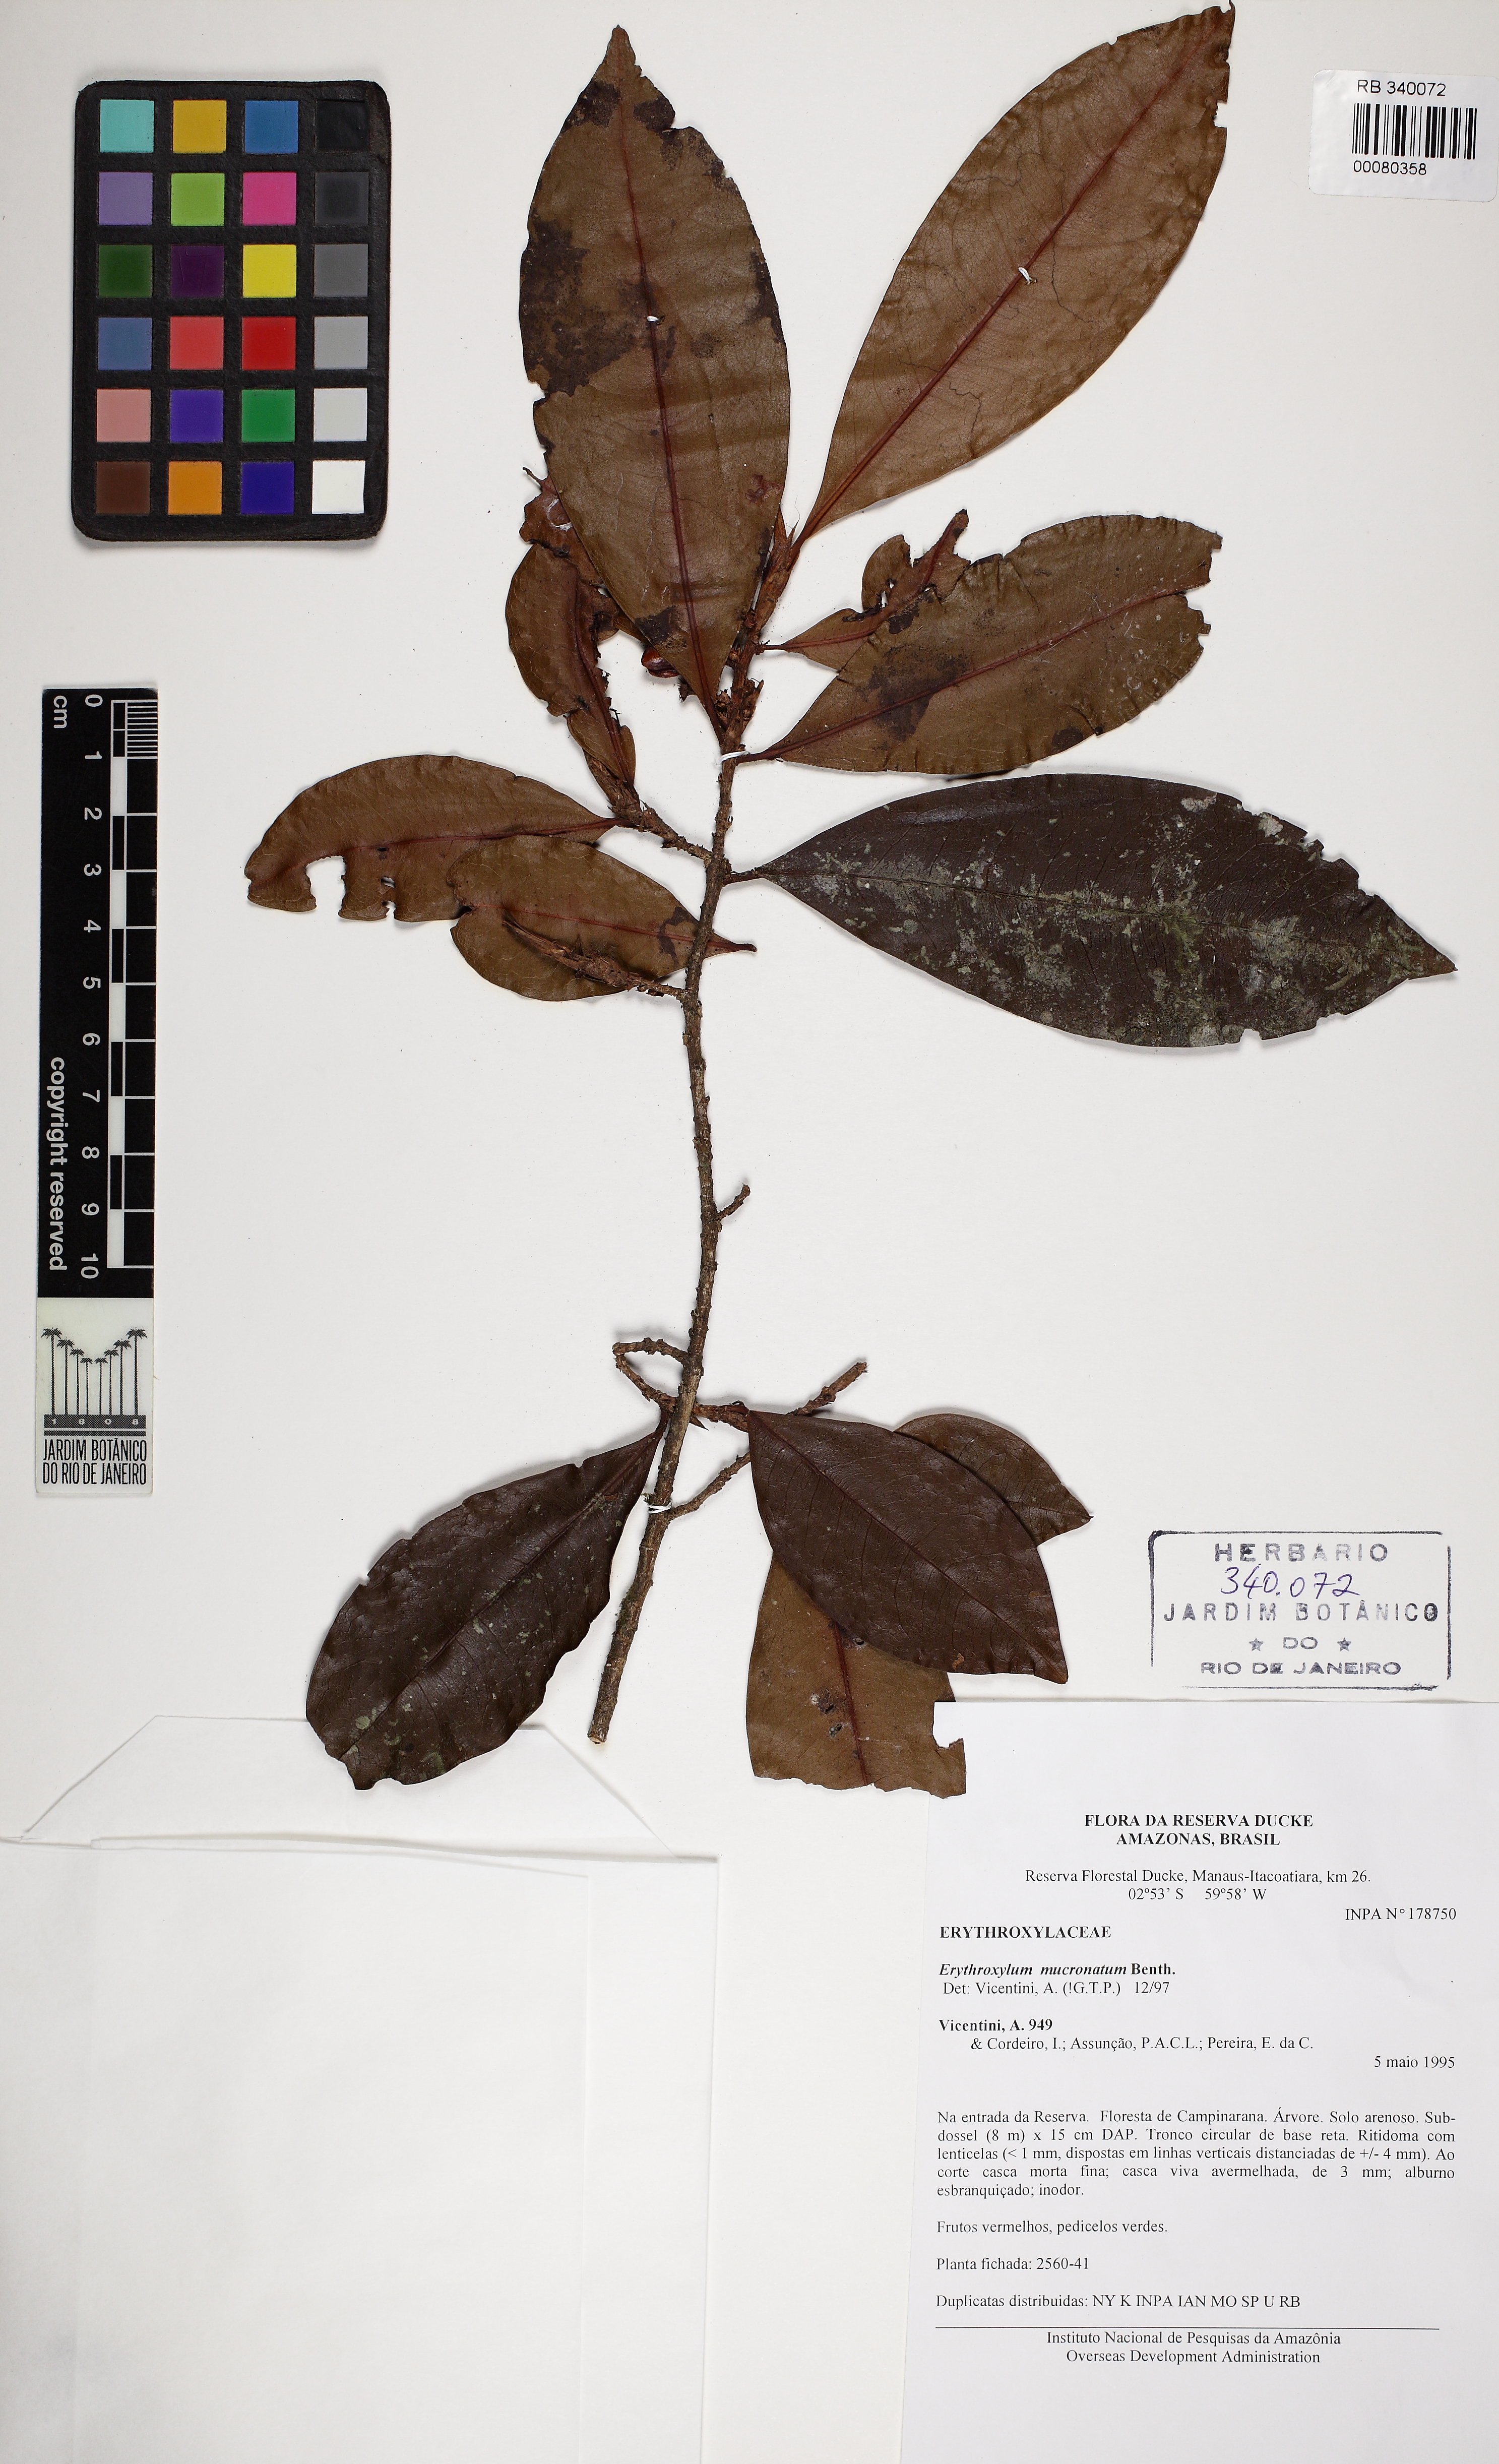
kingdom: Plantae
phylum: Tracheophyta
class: Magnoliopsida
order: Malpighiales
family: Erythroxylaceae
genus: Erythroxylum
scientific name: Erythroxylum mucronatum
